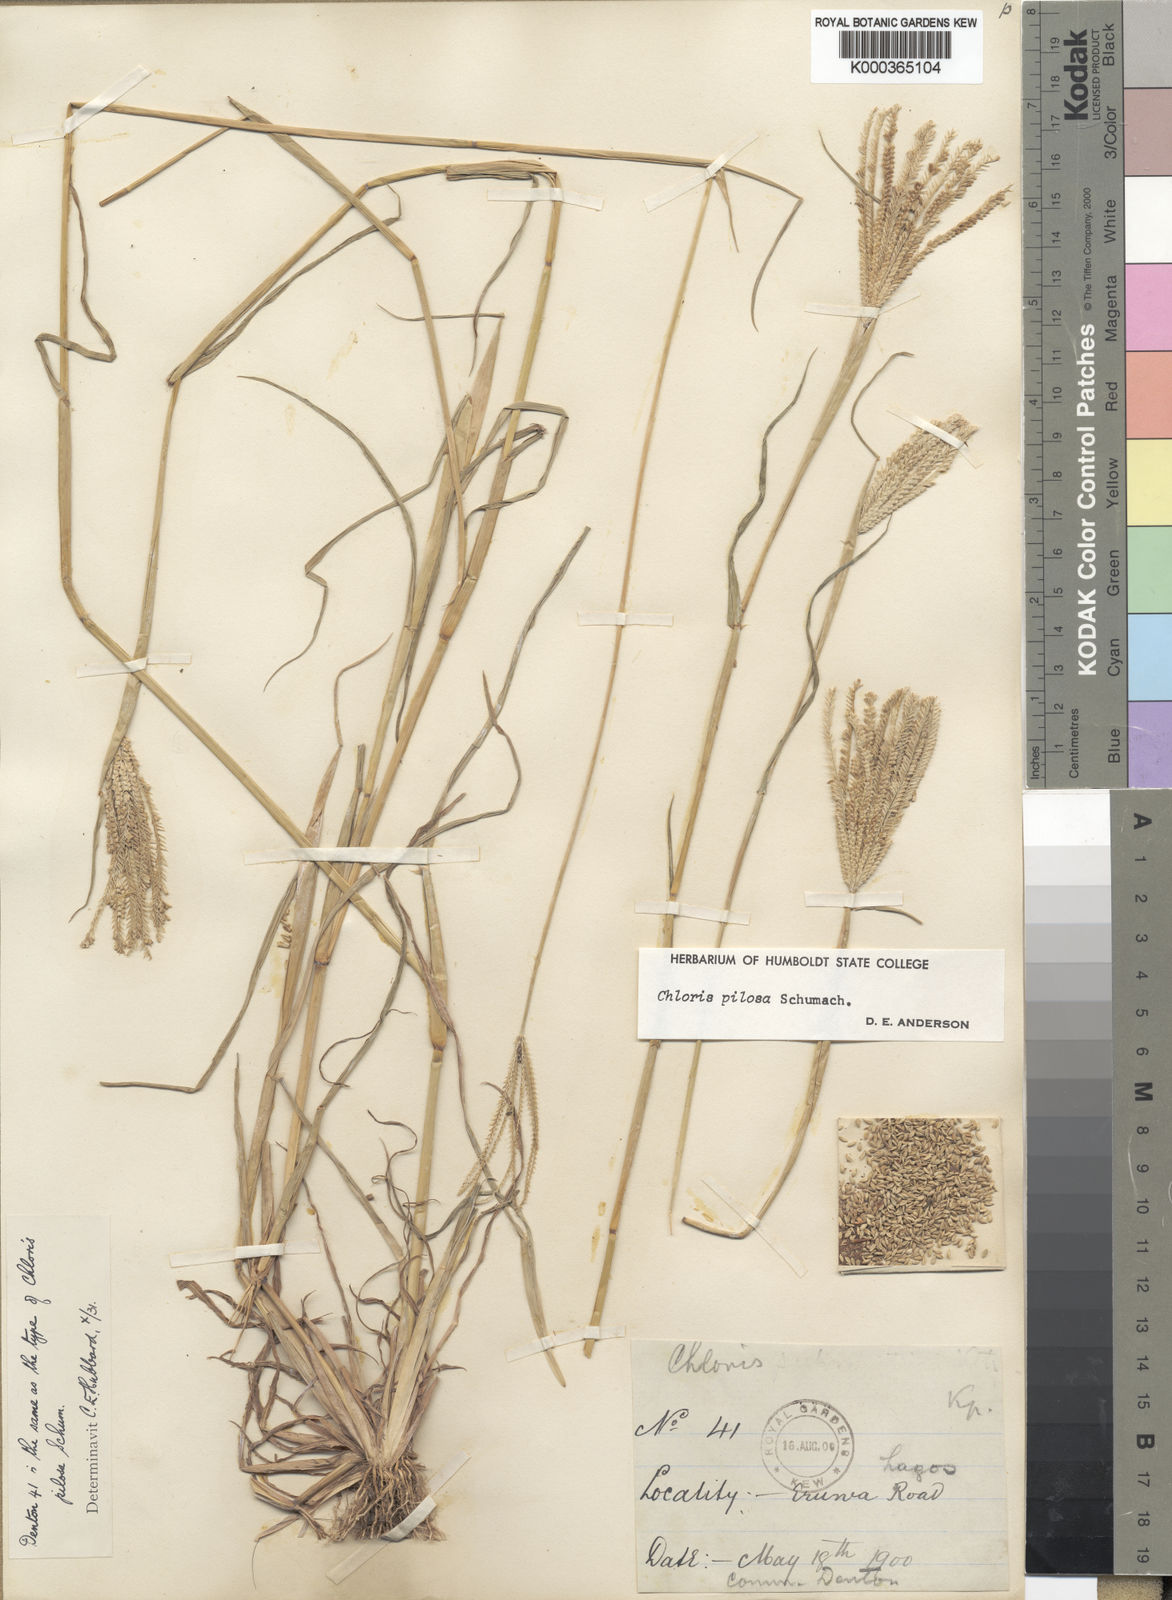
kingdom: Plantae
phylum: Tracheophyta
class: Liliopsida
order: Poales
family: Poaceae
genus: Chloris
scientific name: Chloris pilosa
